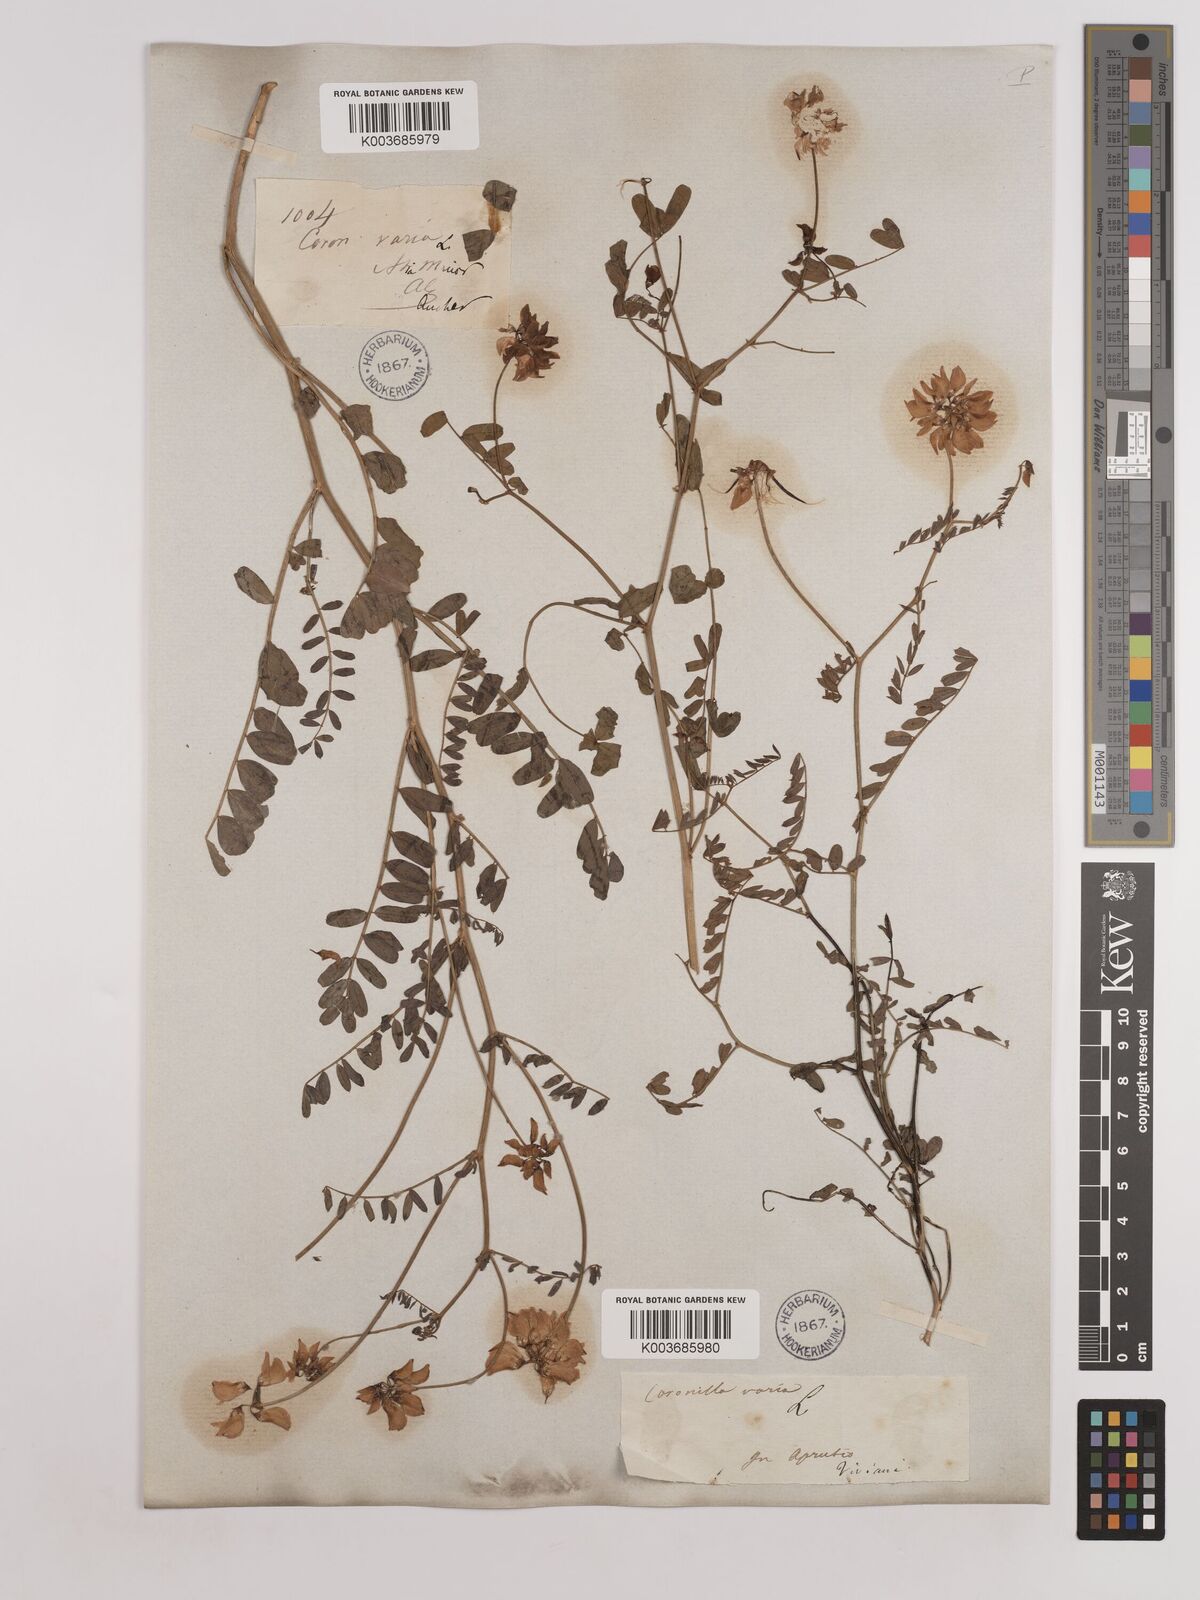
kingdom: Plantae
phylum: Tracheophyta
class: Magnoliopsida
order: Fabales
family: Fabaceae
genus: Coronilla
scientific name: Coronilla varia
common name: Crownvetch
